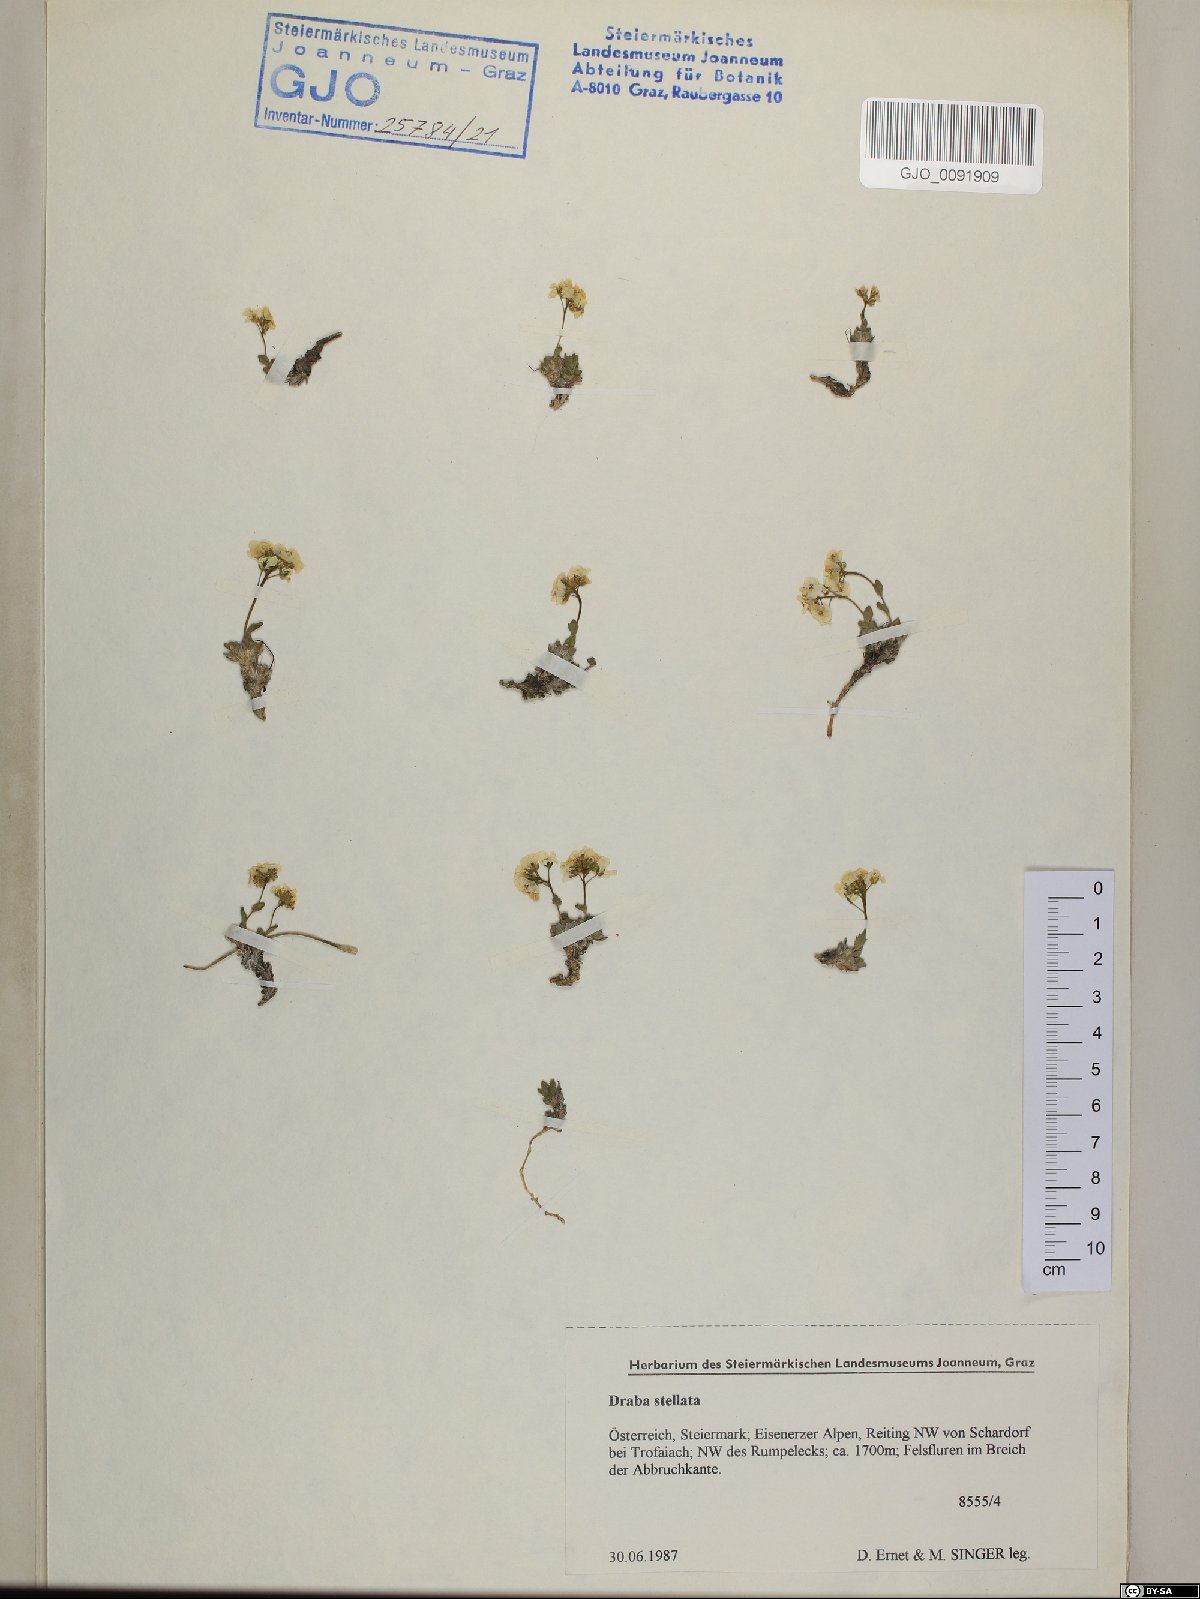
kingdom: Plantae
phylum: Tracheophyta
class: Magnoliopsida
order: Brassicales
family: Brassicaceae
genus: Draba
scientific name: Draba stellata
